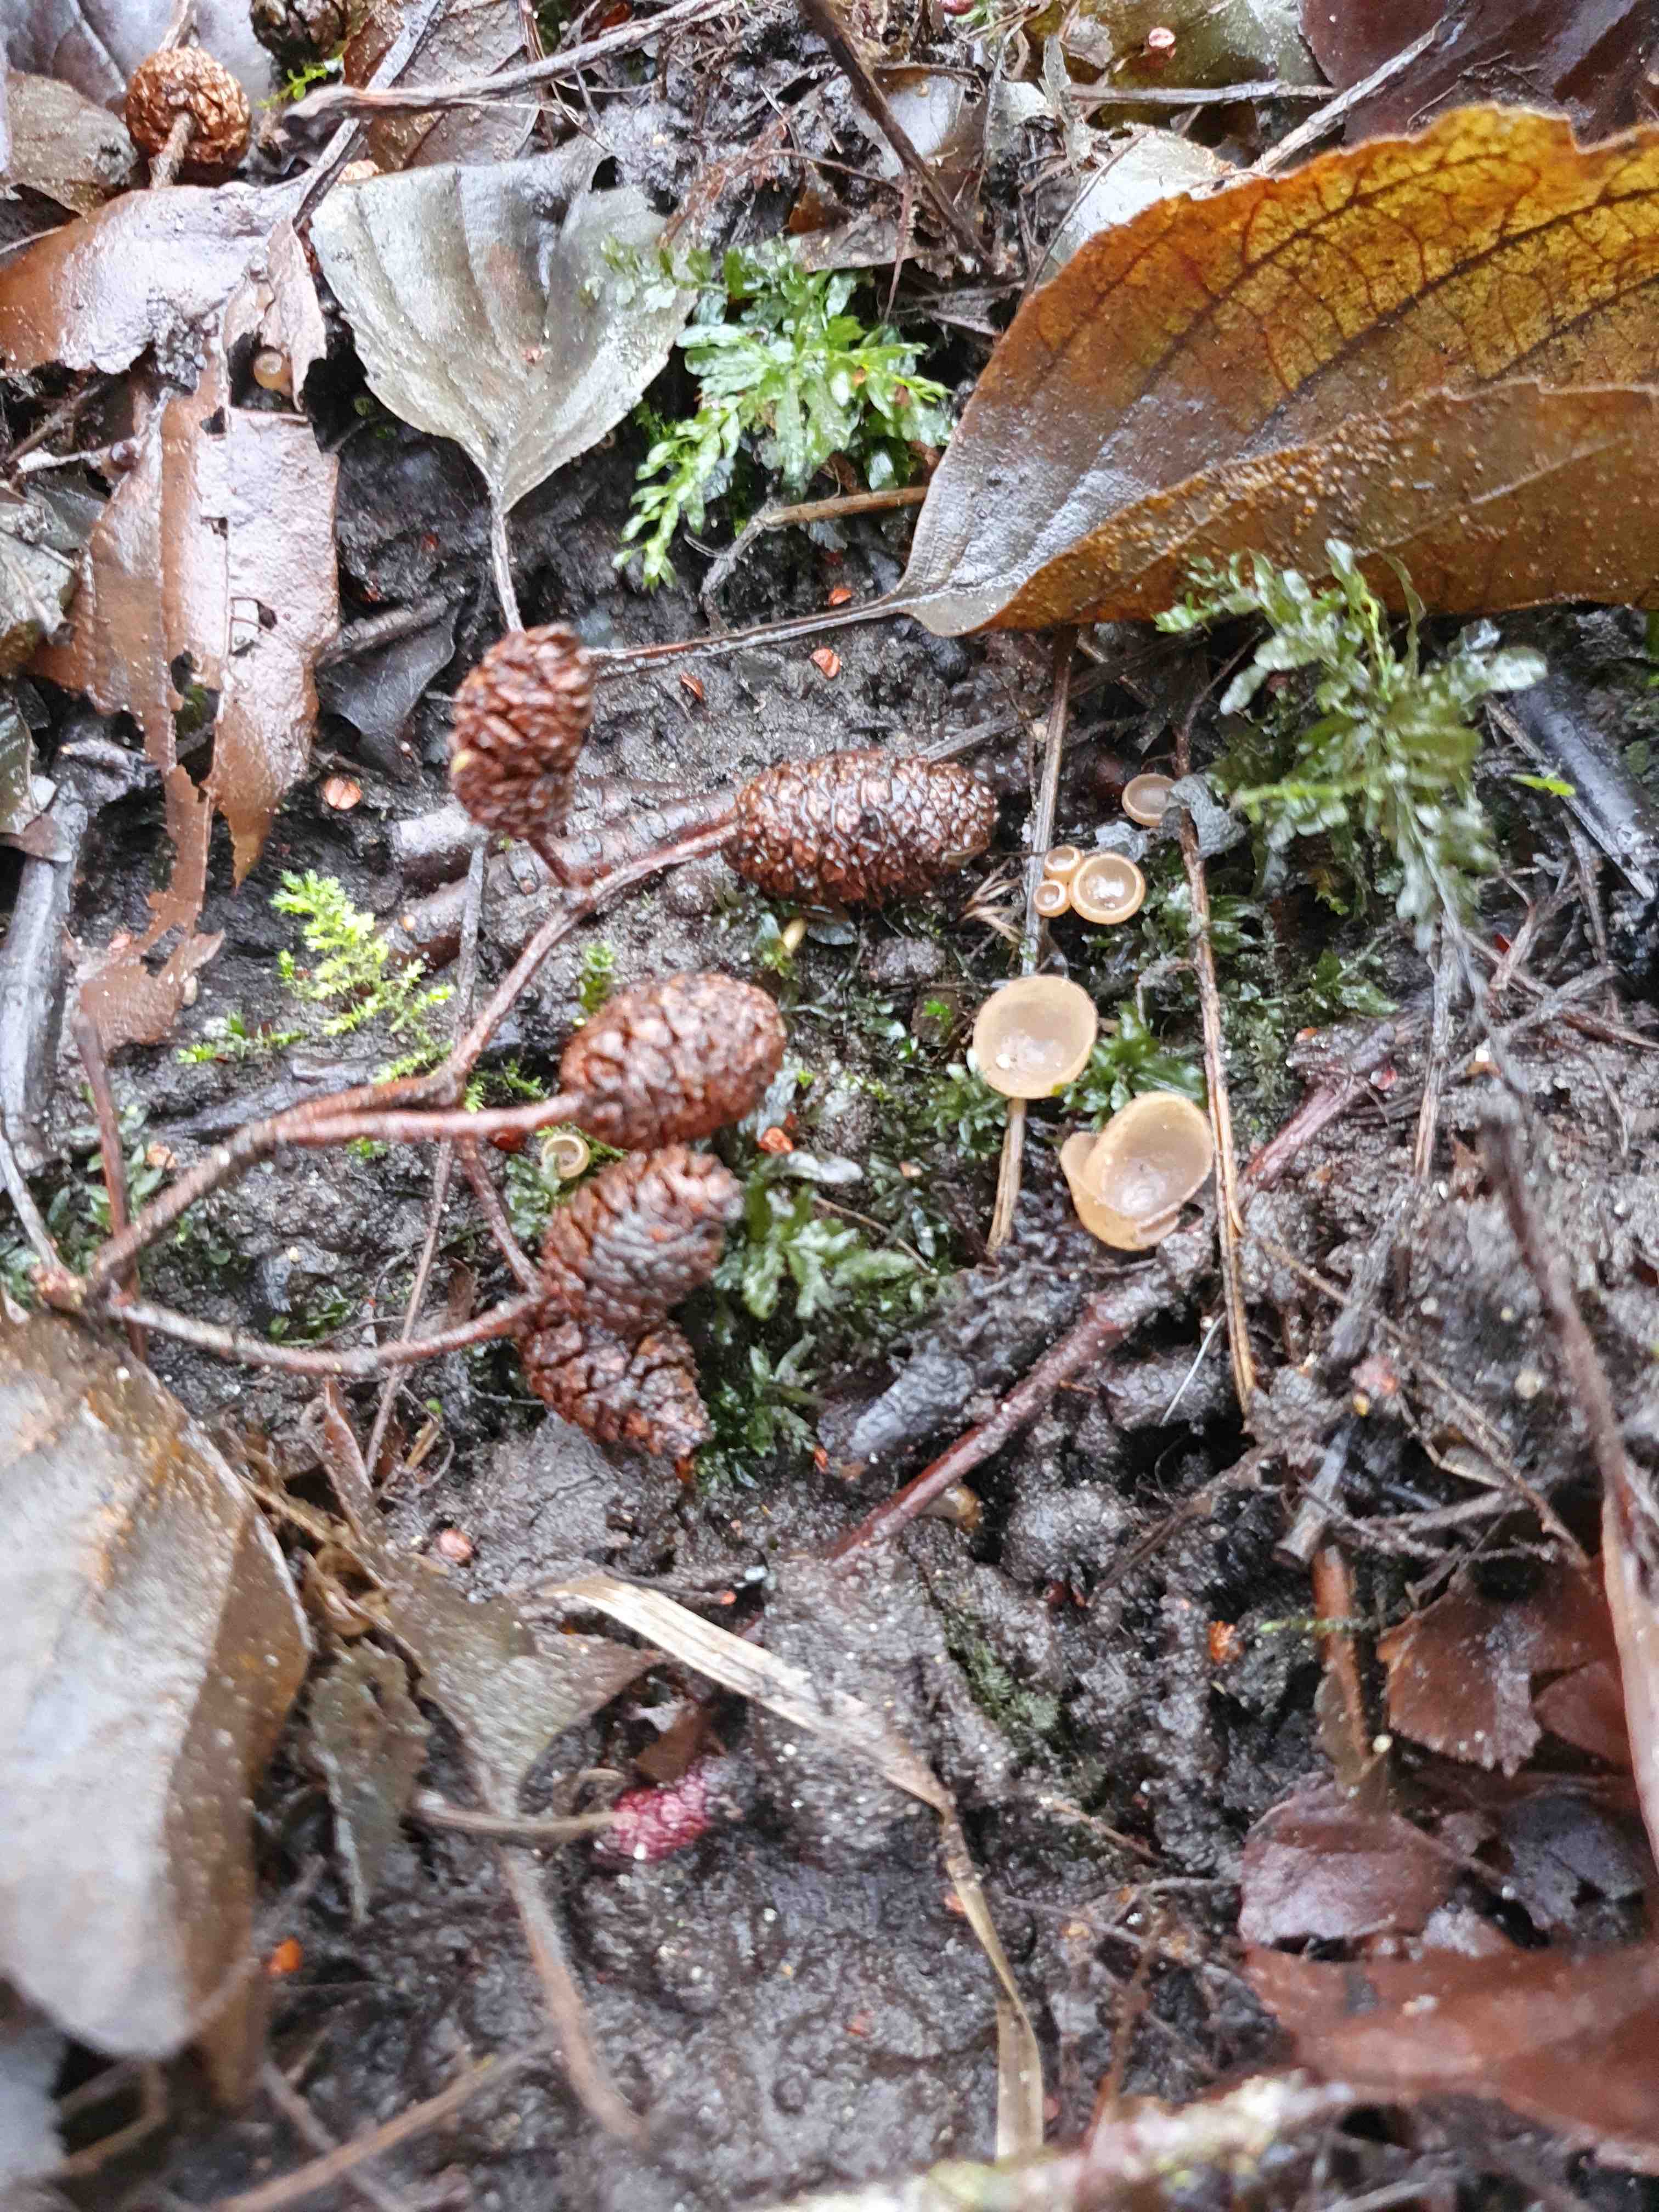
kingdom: Fungi
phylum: Ascomycota
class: Leotiomycetes
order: Helotiales
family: Sclerotiniaceae
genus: Ciboria
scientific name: Ciboria amentacea
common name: ellerakle-knoldskive
